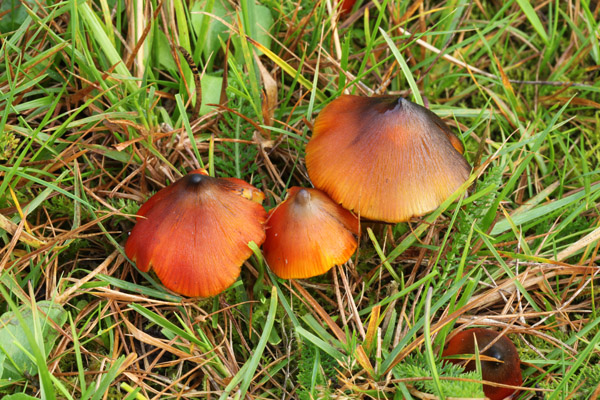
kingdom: Fungi
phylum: Basidiomycota
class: Agaricomycetes
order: Agaricales
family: Hygrophoraceae
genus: Hygrocybe
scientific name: Hygrocybe conica
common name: kegle-vokshat
